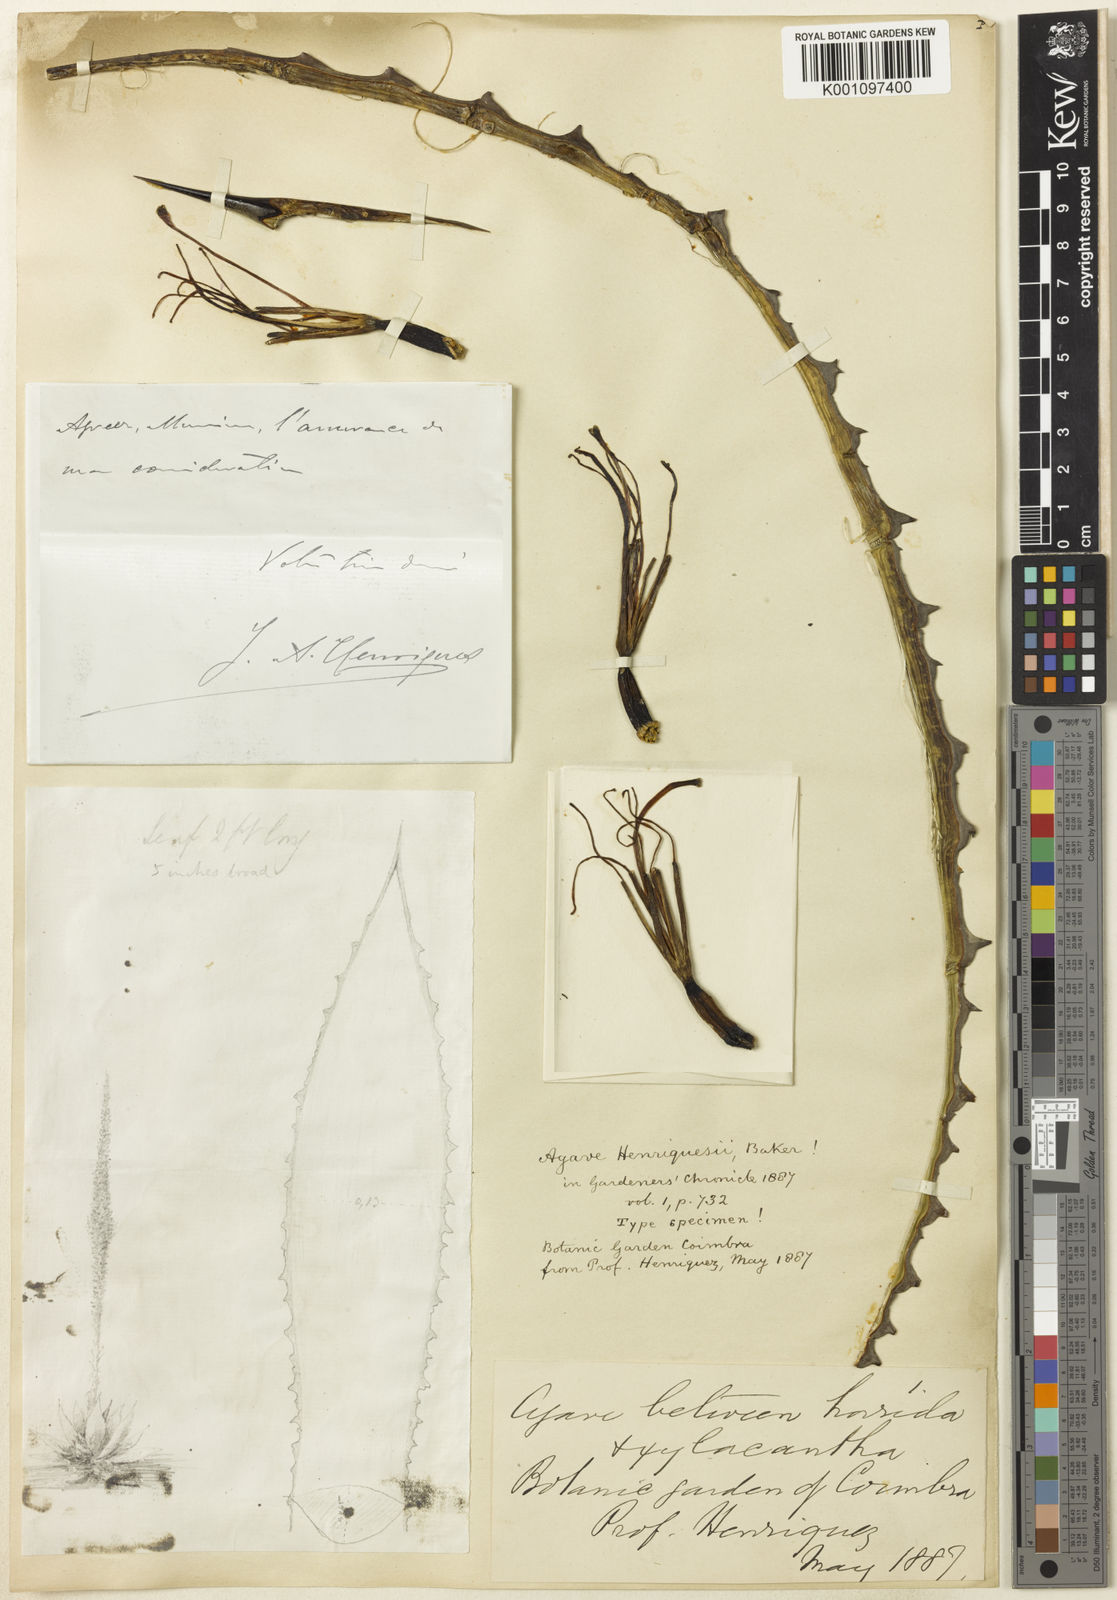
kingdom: Plantae
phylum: Tracheophyta
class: Liliopsida
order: Asparagales
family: Asparagaceae
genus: Agave
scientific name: Agave henriquesii
